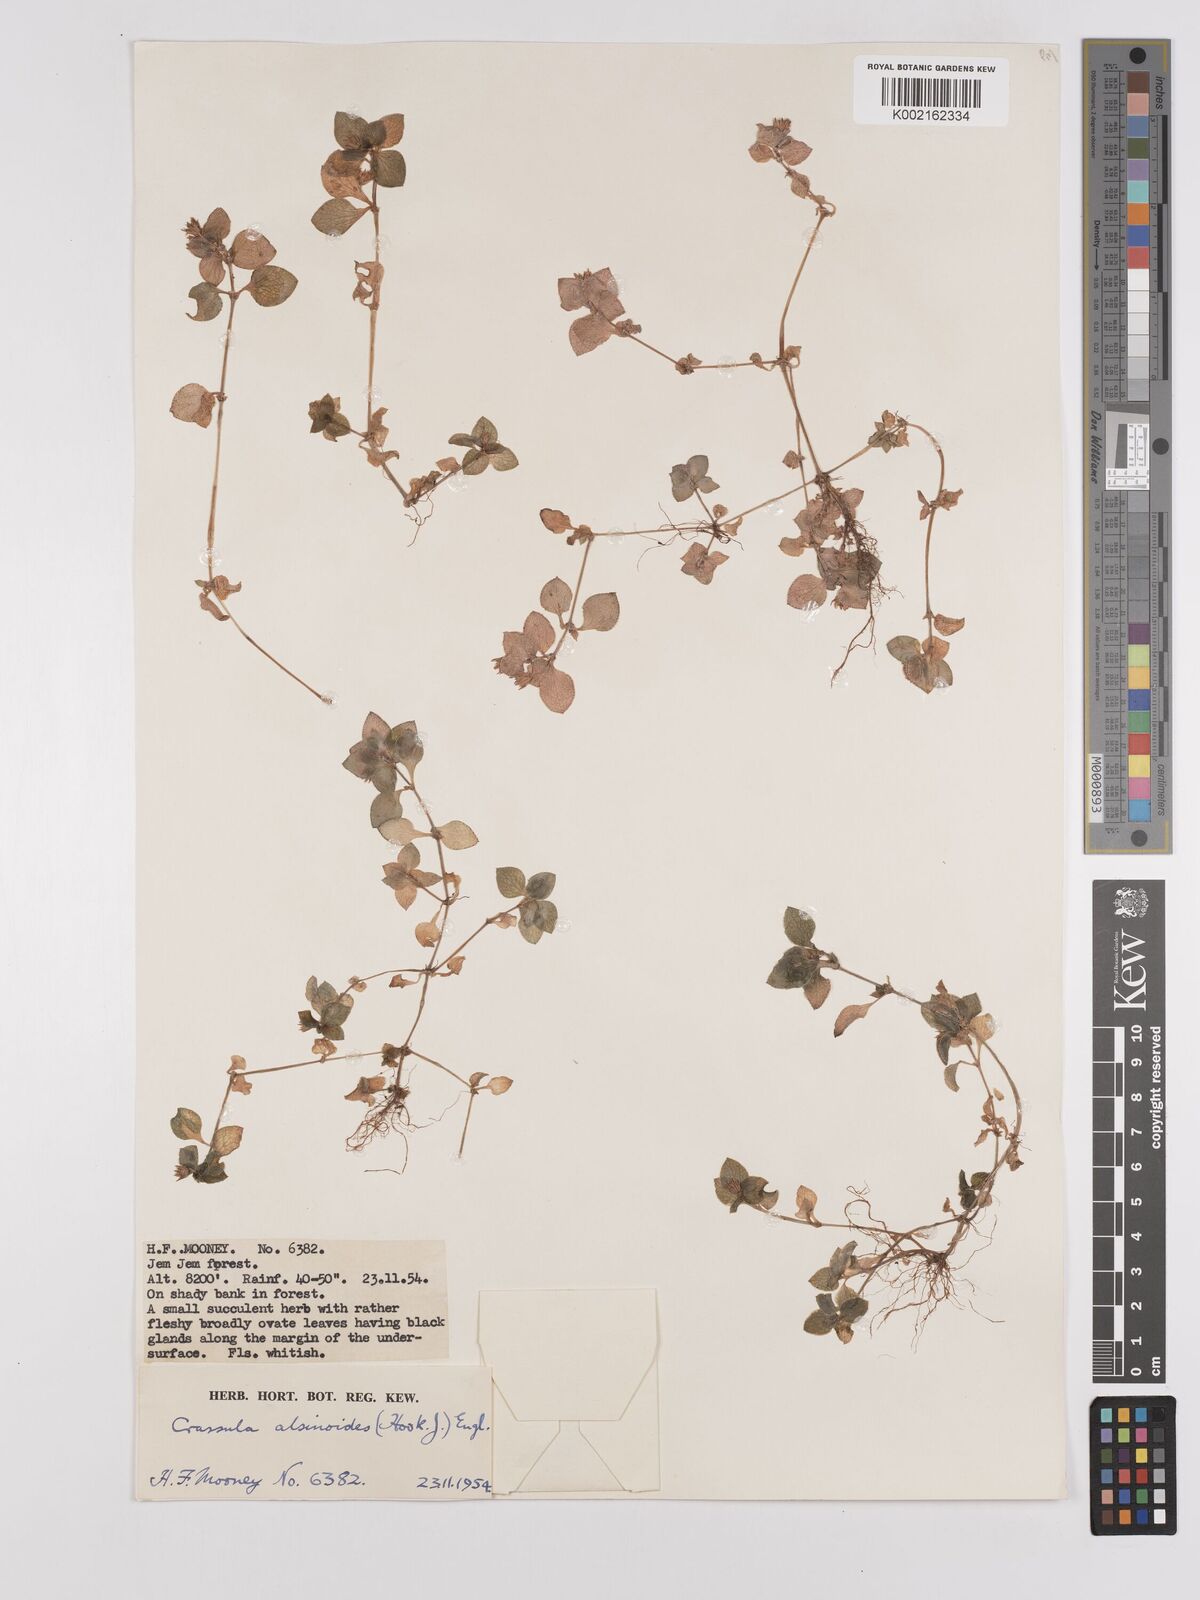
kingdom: Plantae
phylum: Tracheophyta
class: Magnoliopsida
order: Saxifragales
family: Crassulaceae
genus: Crassula
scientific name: Crassula alsinoides
